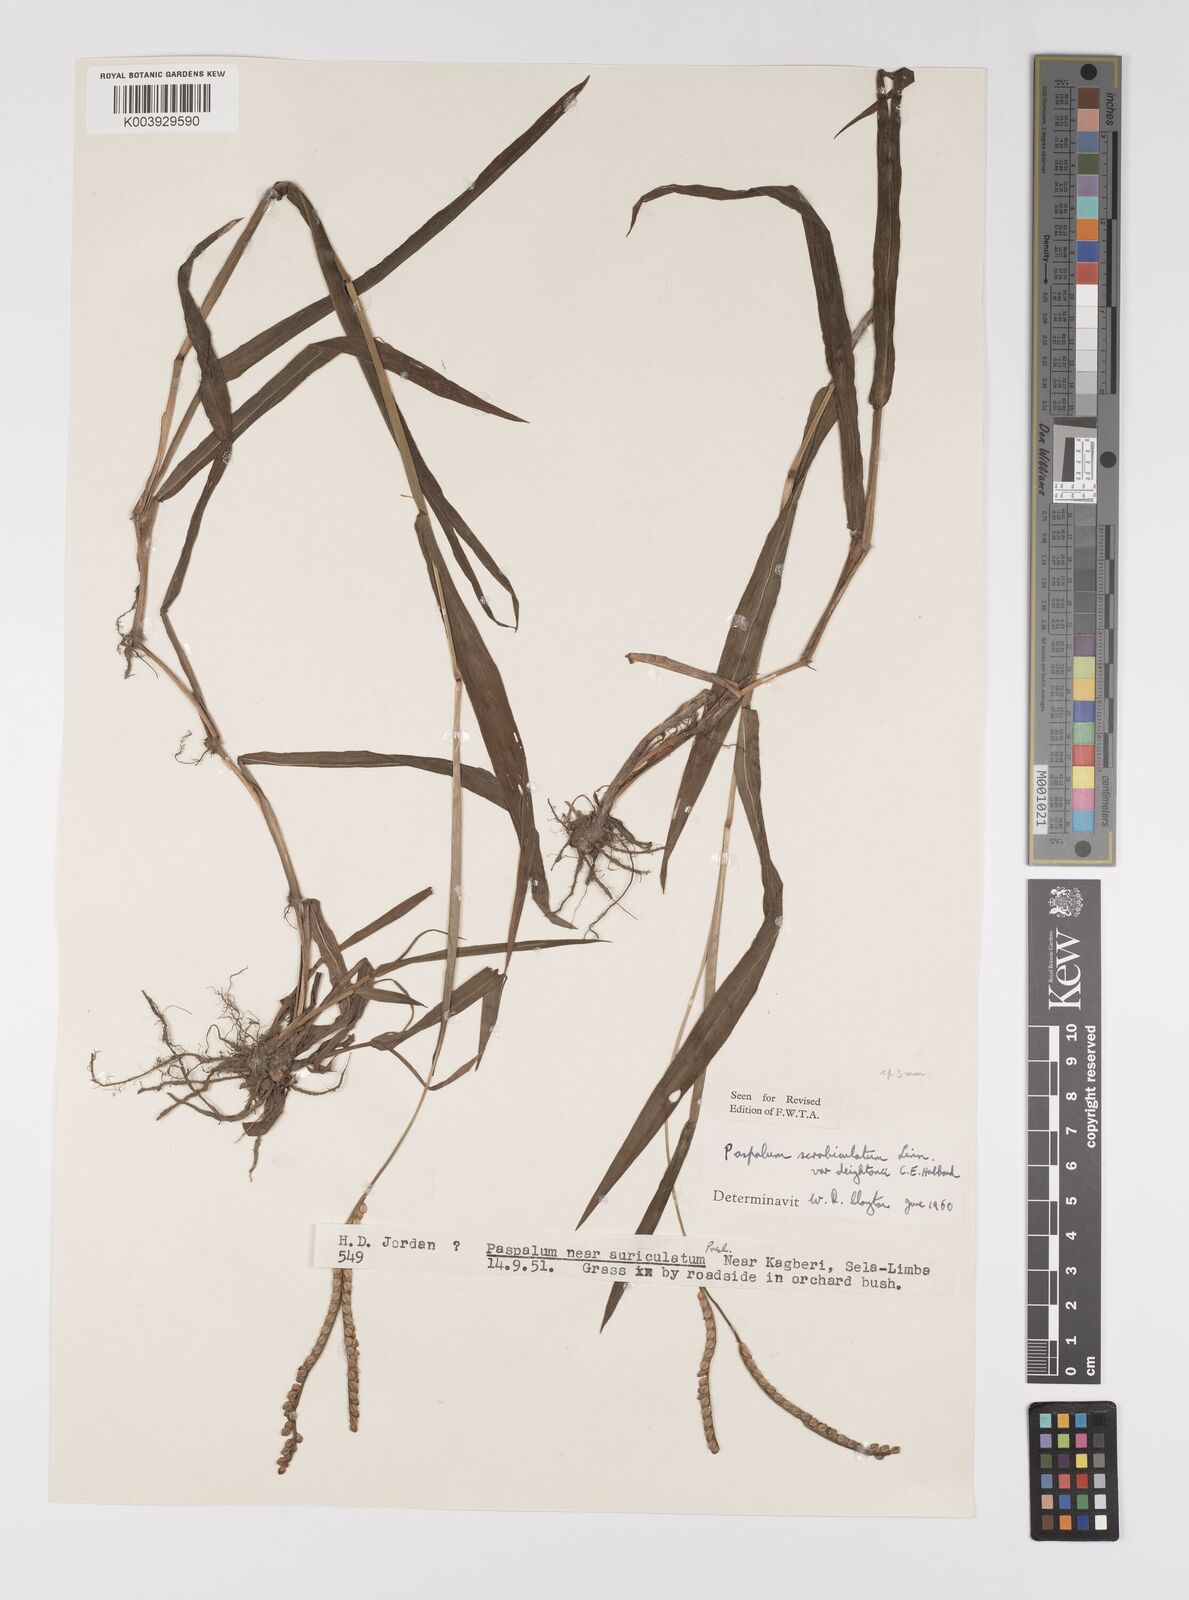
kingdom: Plantae
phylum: Tracheophyta
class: Liliopsida
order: Poales
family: Poaceae
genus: Paspalum
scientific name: Paspalum scrobiculatum
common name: Kodo millet
